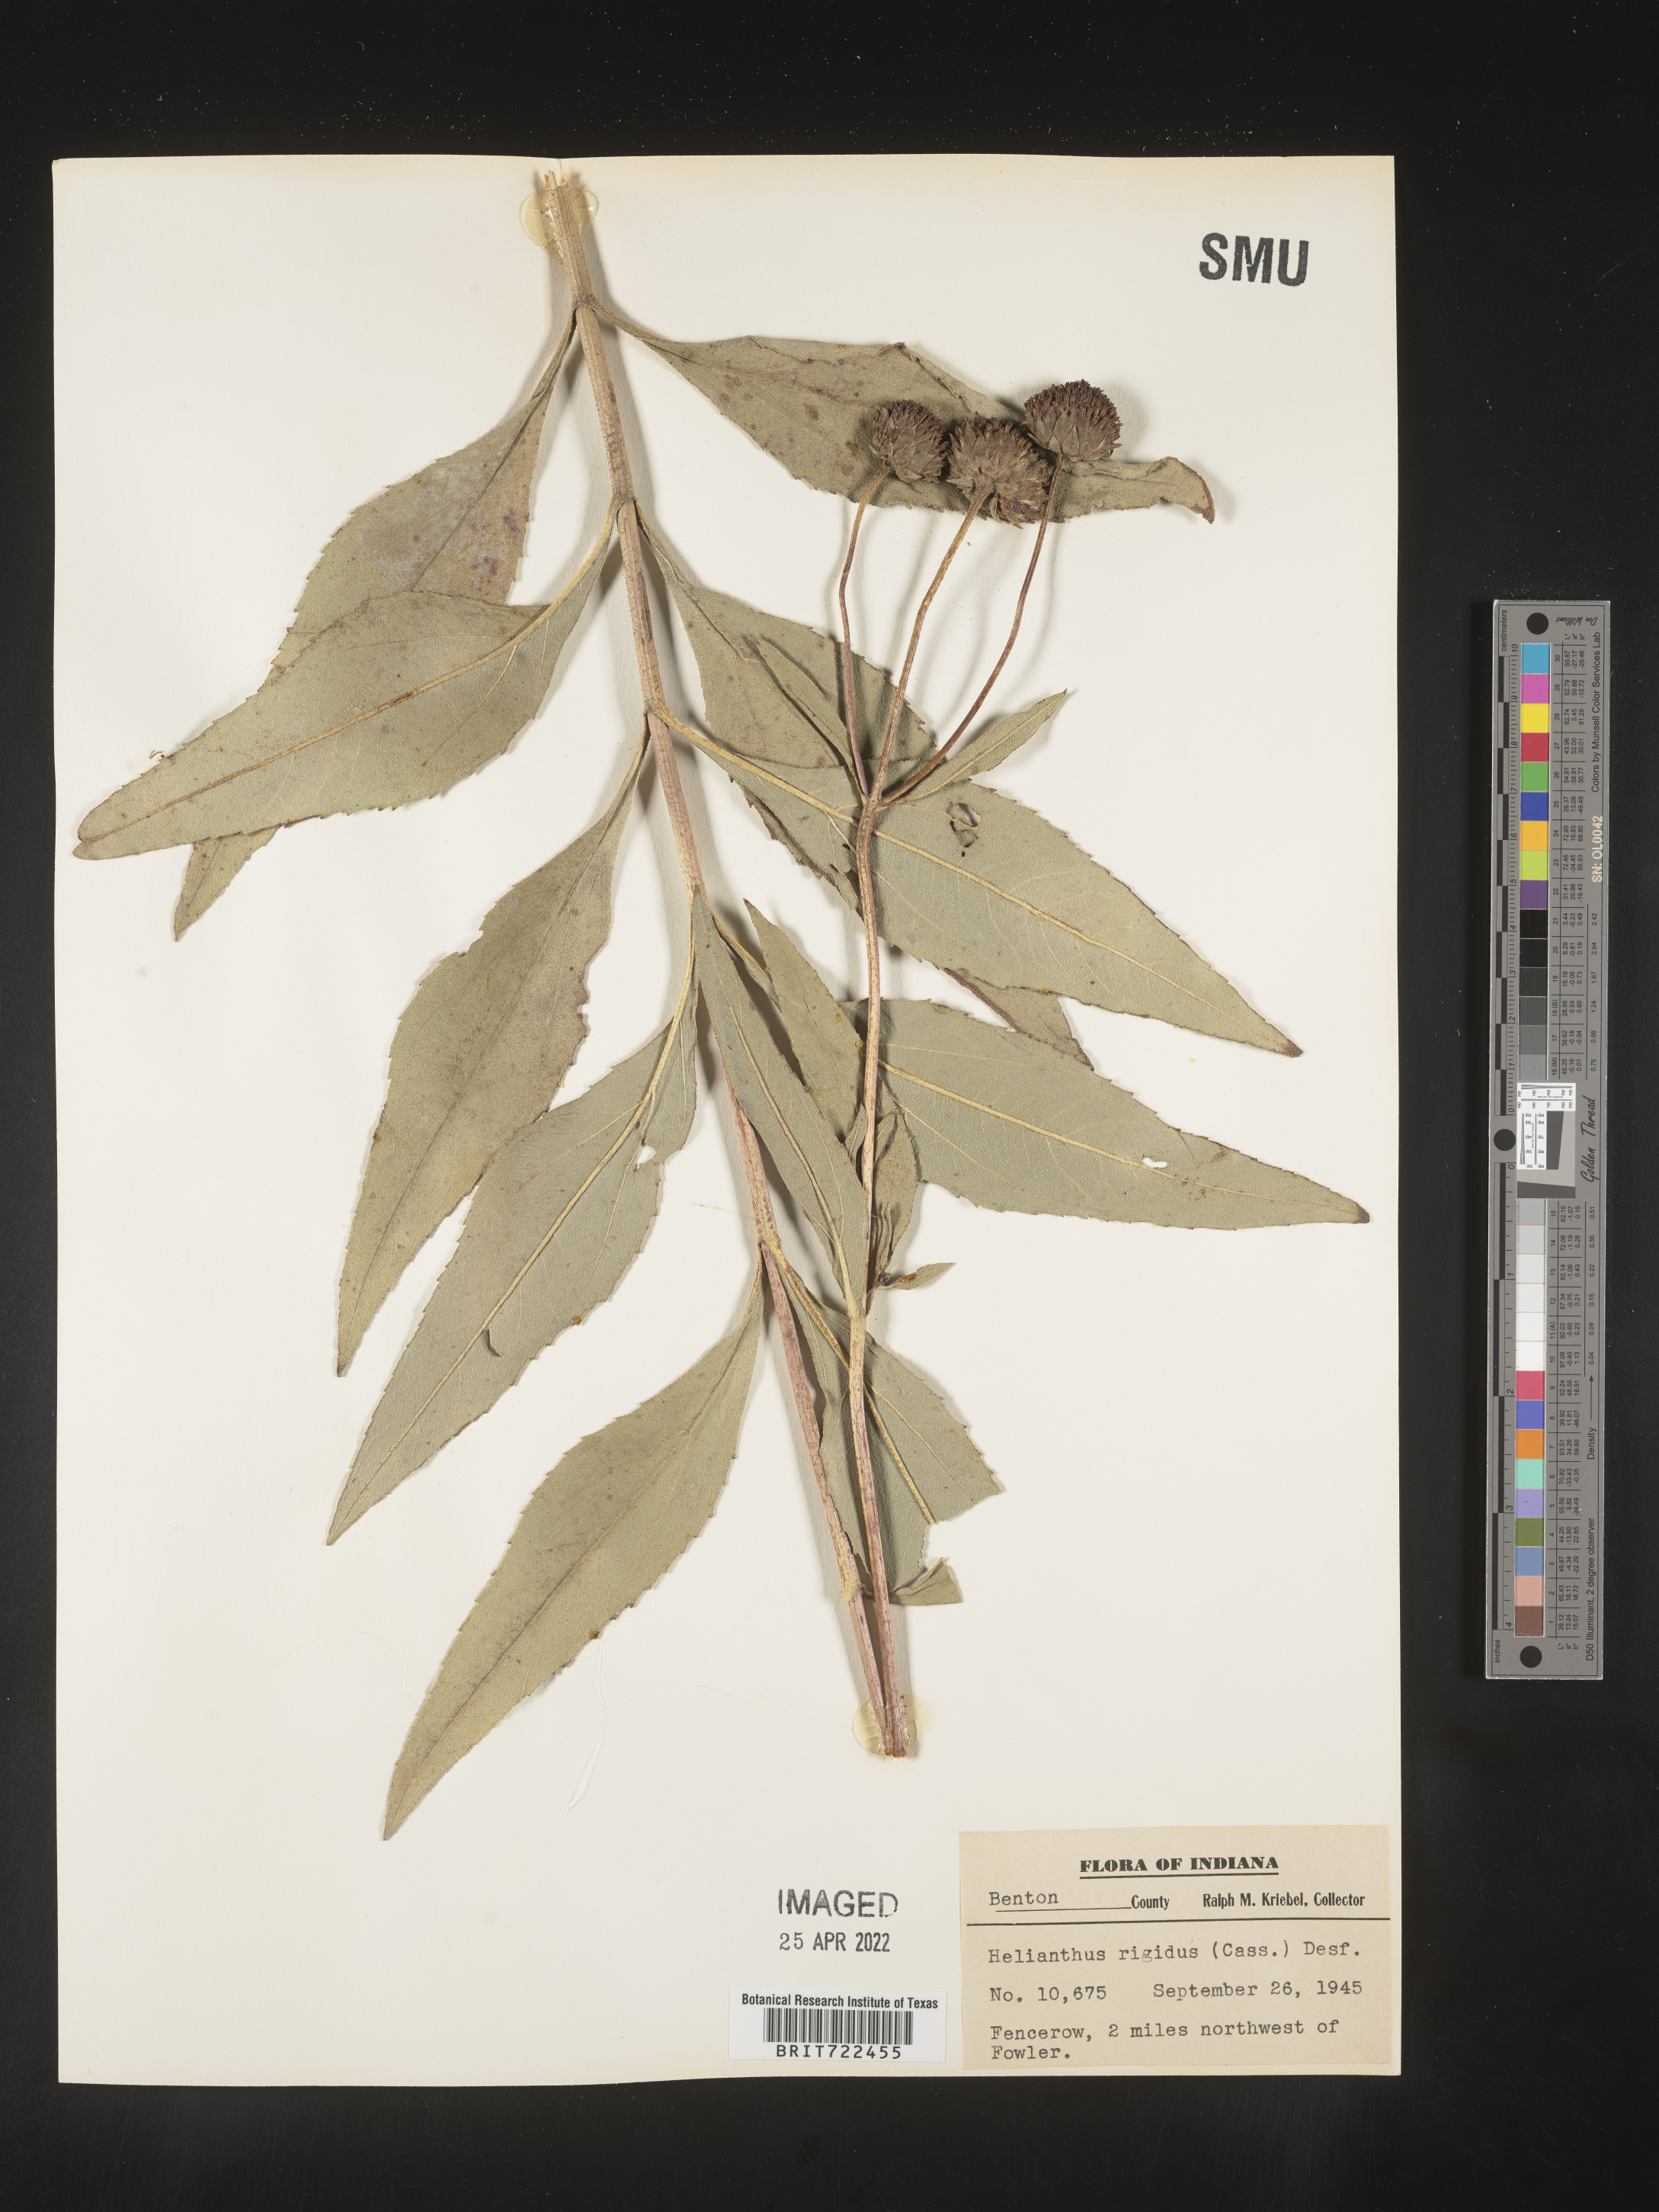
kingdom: Plantae
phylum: Tracheophyta
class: Magnoliopsida
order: Asterales
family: Asteraceae
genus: Helianthus
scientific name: Helianthus laetiflorus
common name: Perennial sunflower
